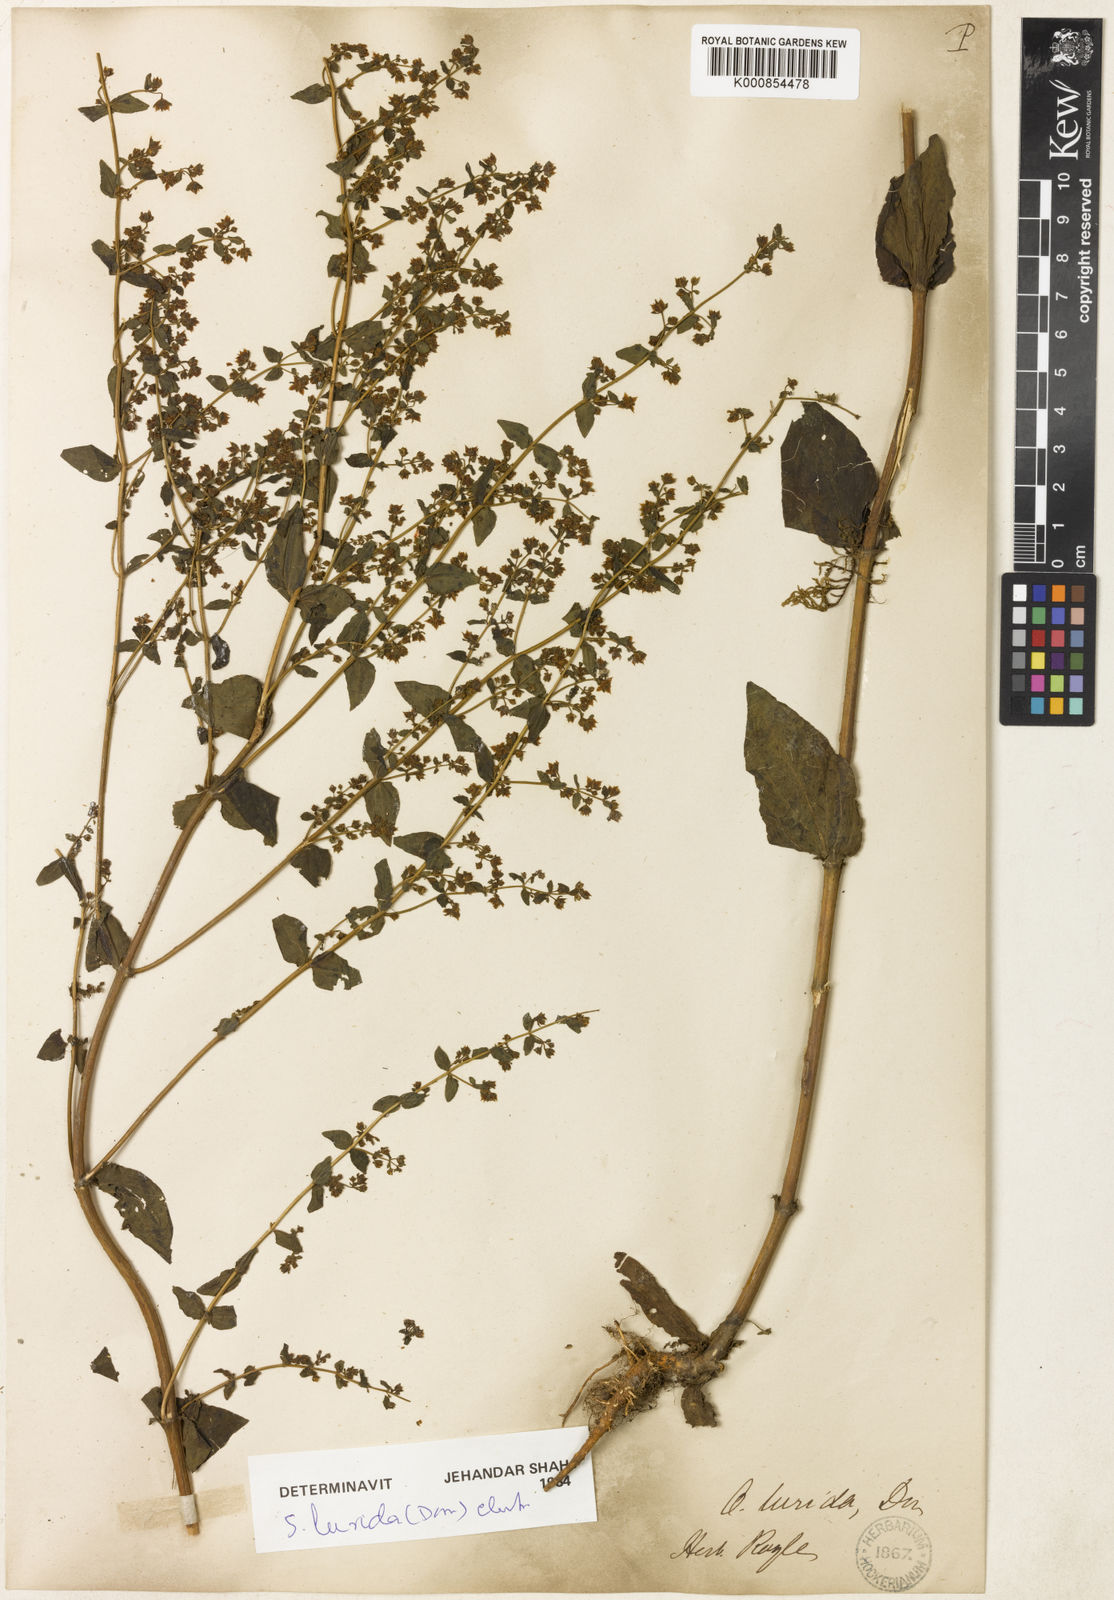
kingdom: Plantae
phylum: Tracheophyta
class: Magnoliopsida
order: Gentianales
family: Gentianaceae
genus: Swertia
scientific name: Swertia lurida
